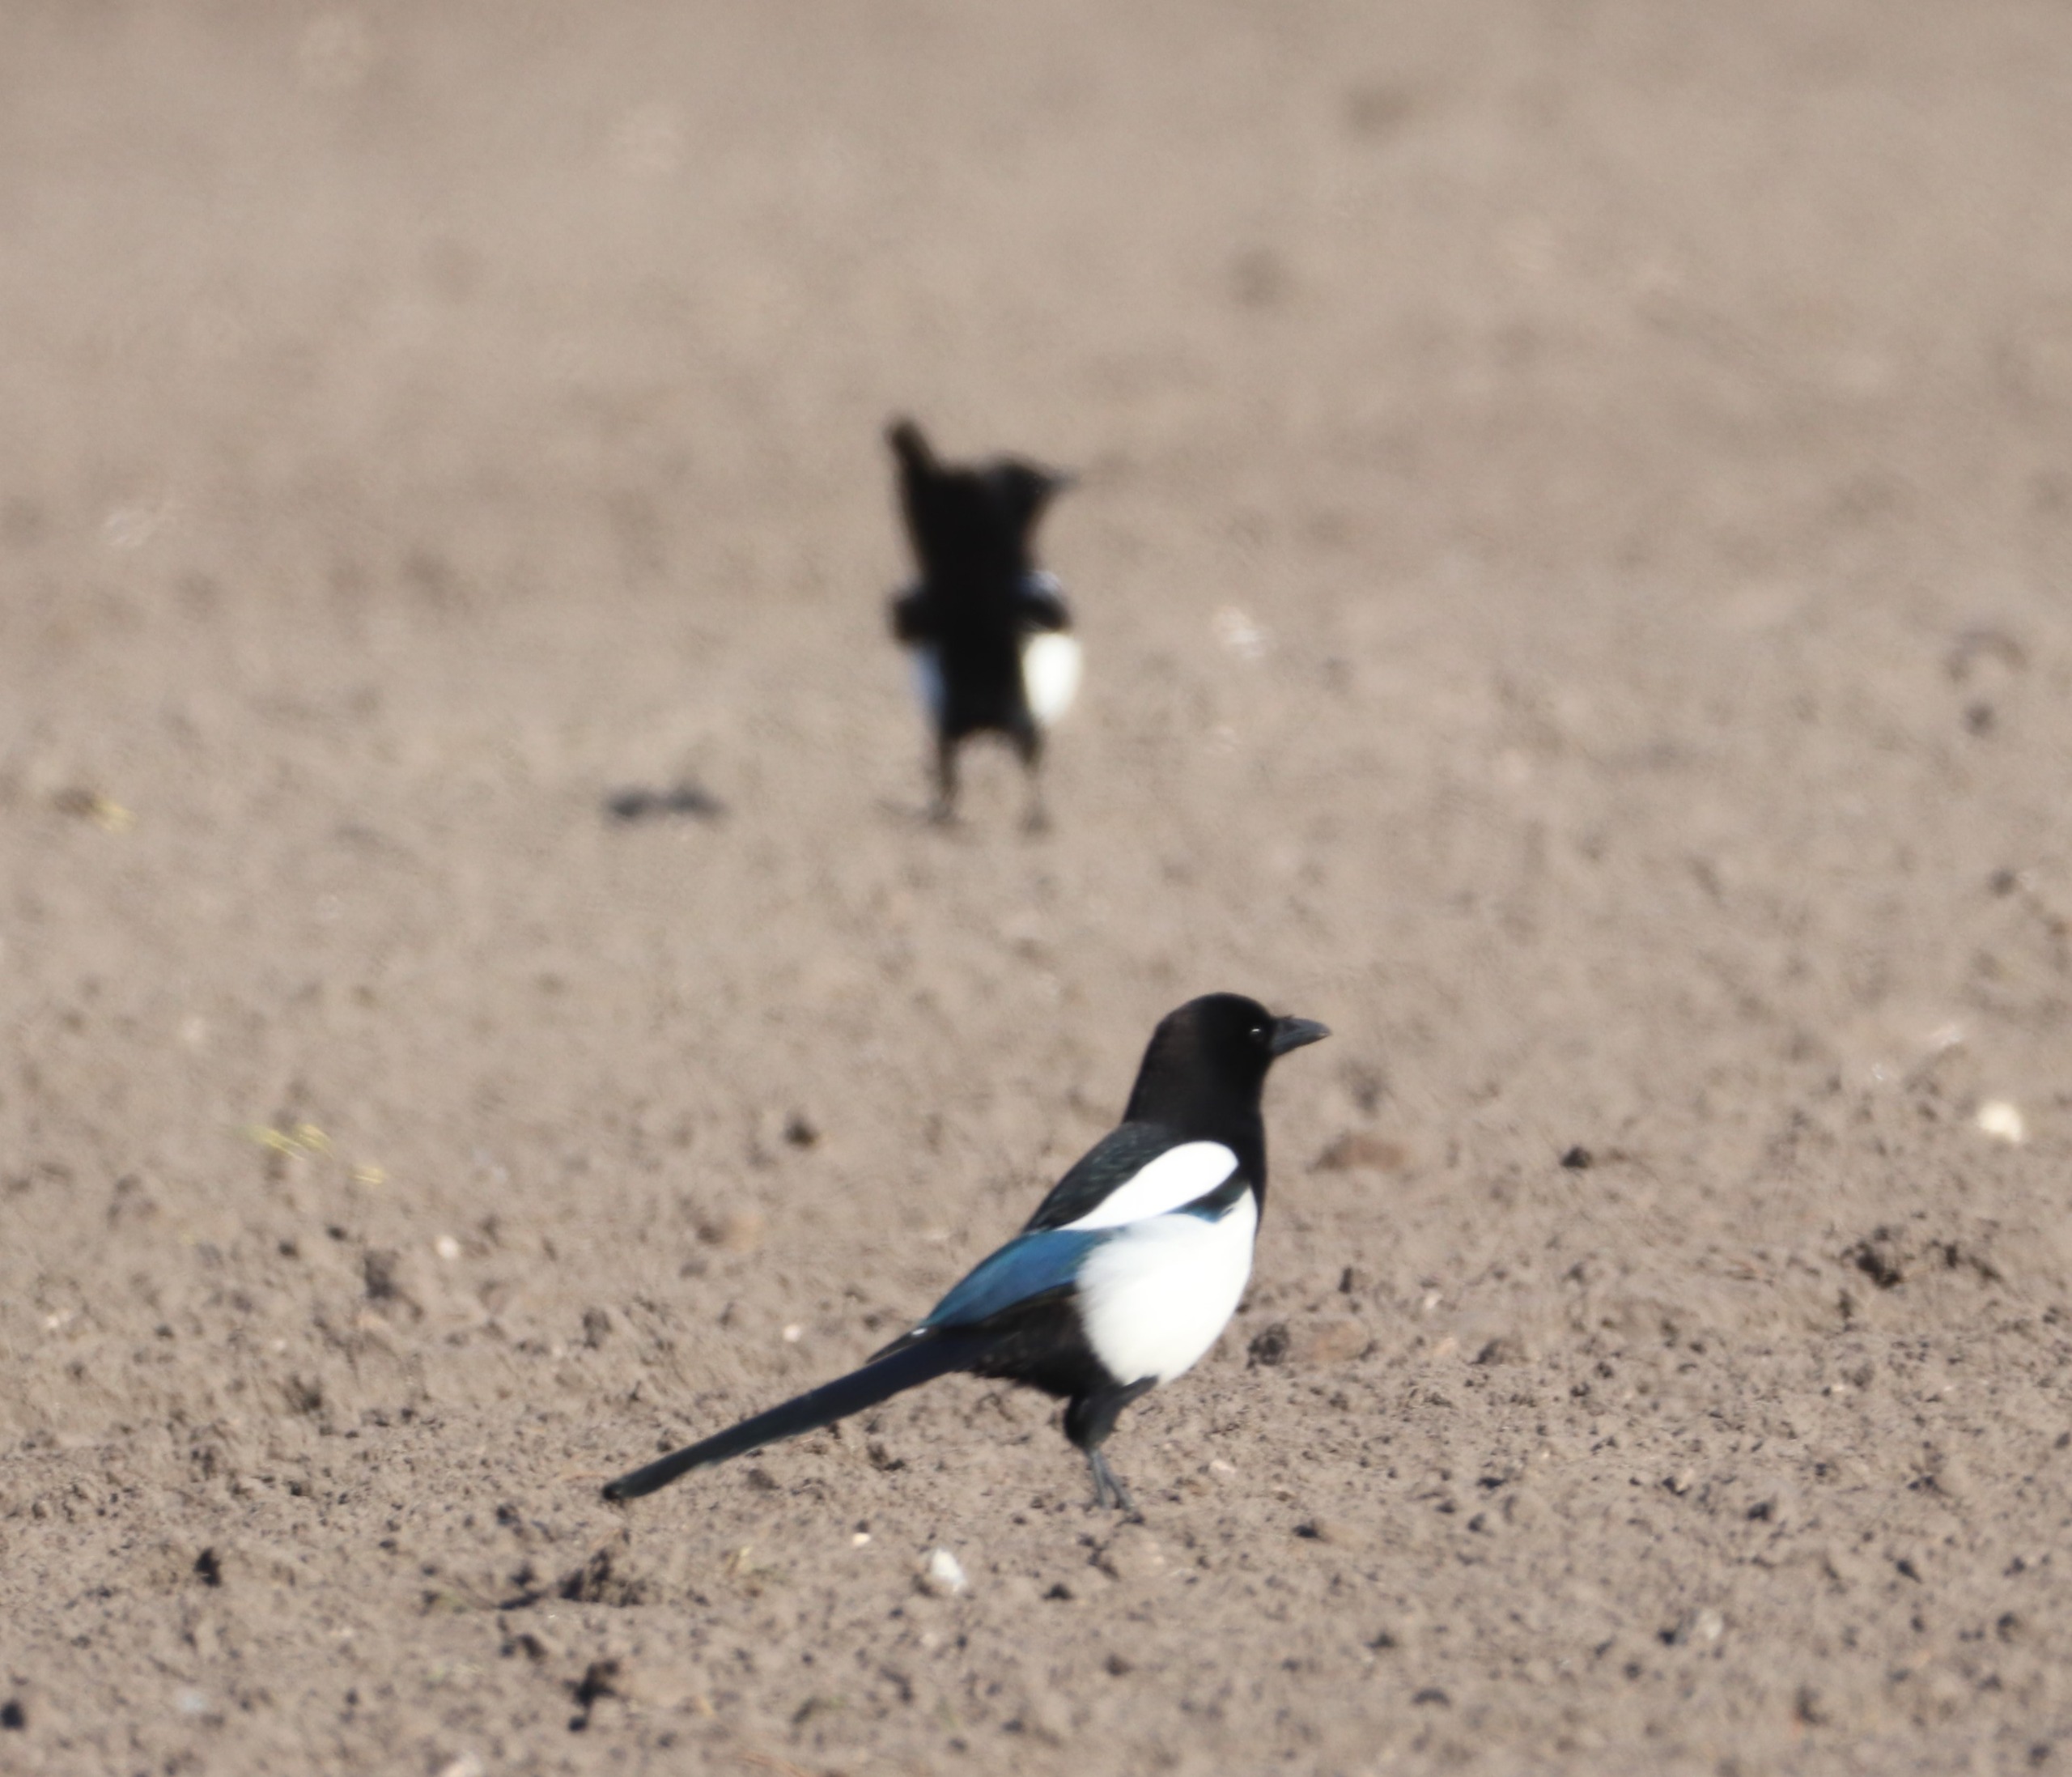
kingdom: Animalia
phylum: Chordata
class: Aves
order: Passeriformes
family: Corvidae
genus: Pica
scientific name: Pica pica
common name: Husskade
